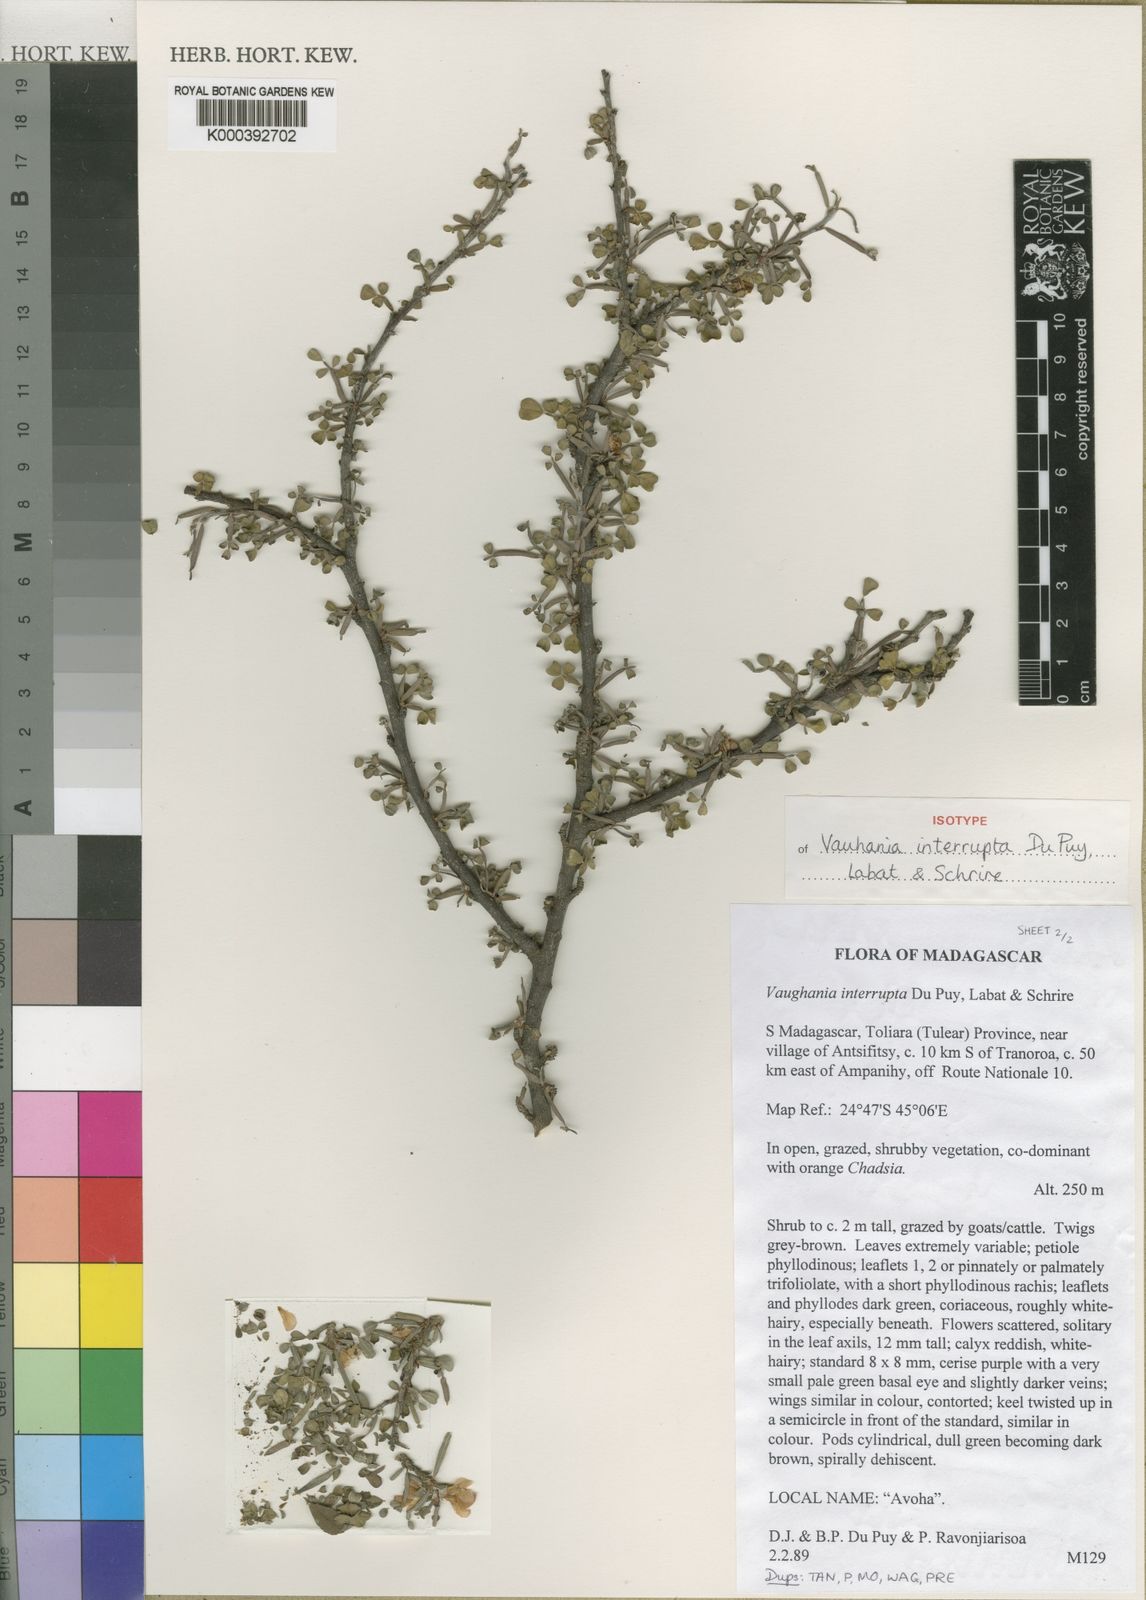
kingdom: Plantae
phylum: Tracheophyta
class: Magnoliopsida
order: Fabales
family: Fabaceae
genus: Indigofera
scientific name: Indigofera interrupta
